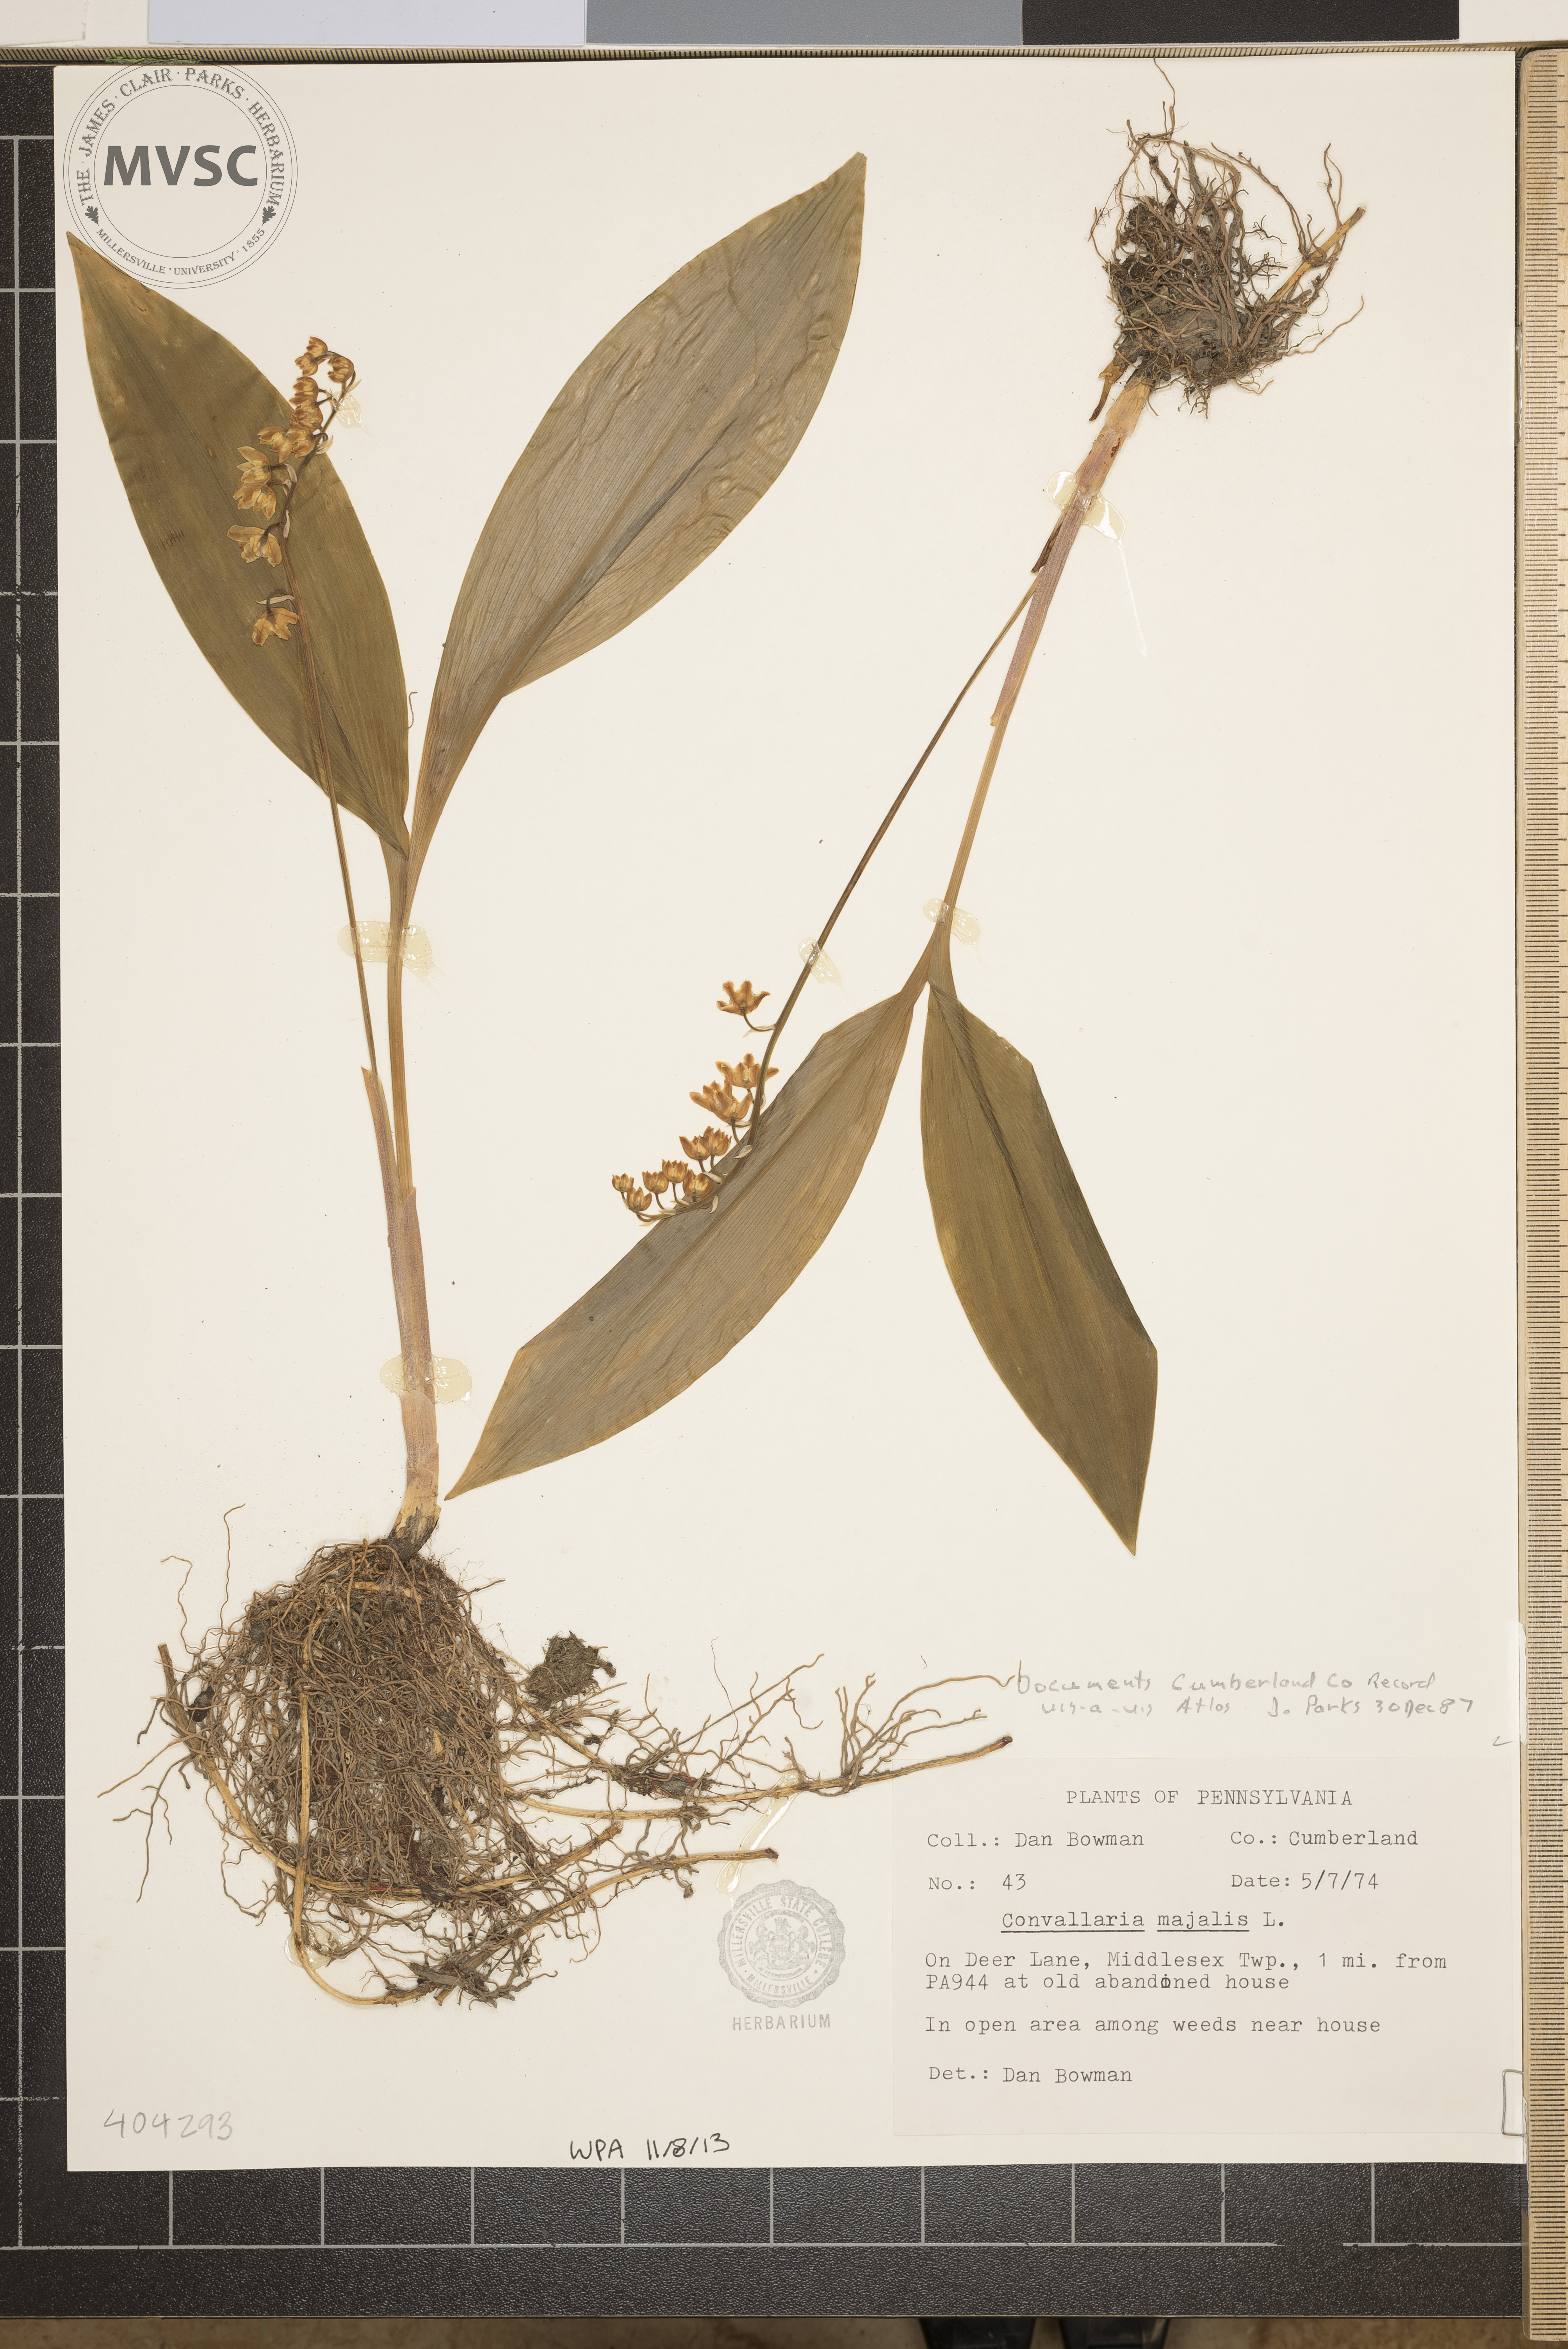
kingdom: Plantae
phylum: Tracheophyta
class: Liliopsida
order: Asparagales
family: Asparagaceae
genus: Convallaria
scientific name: Convallaria majalis
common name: Lily-of-the-valley
